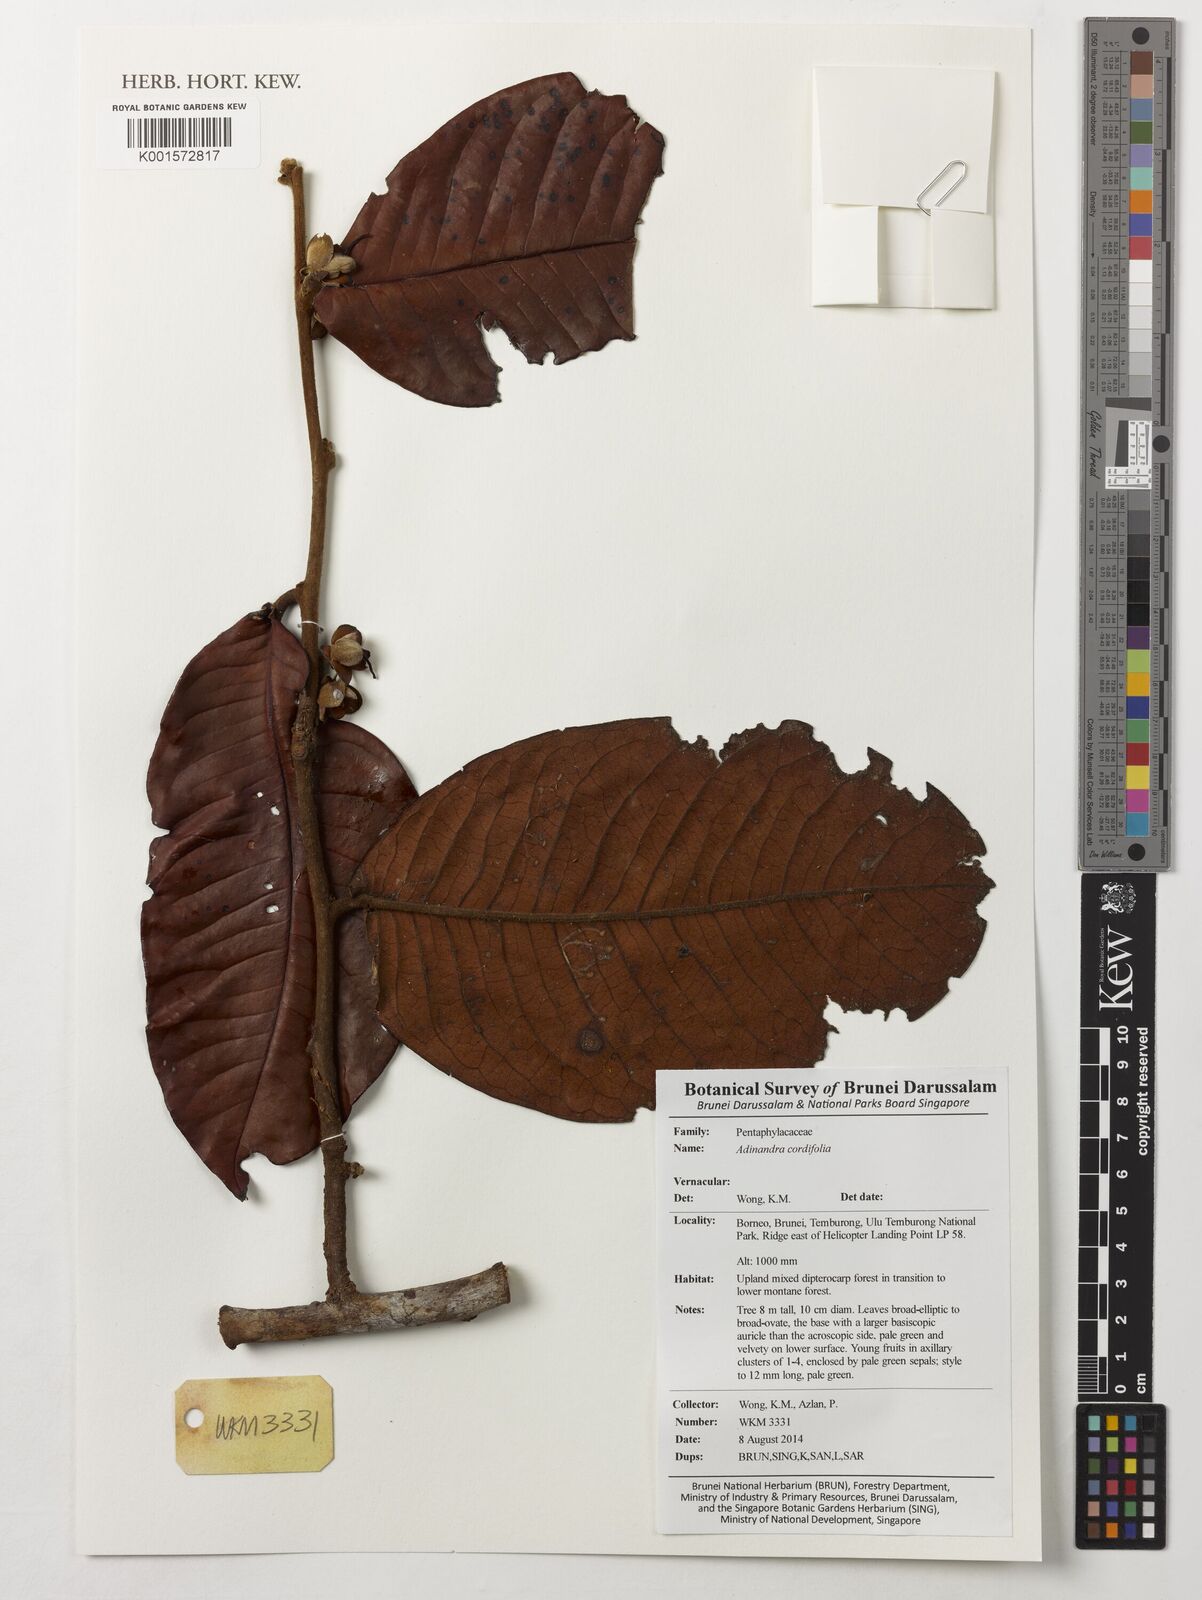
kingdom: Plantae
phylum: Tracheophyta
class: Magnoliopsida
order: Ericales
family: Pentaphylacaceae
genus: Adinandra
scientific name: Adinandra cordifolia
